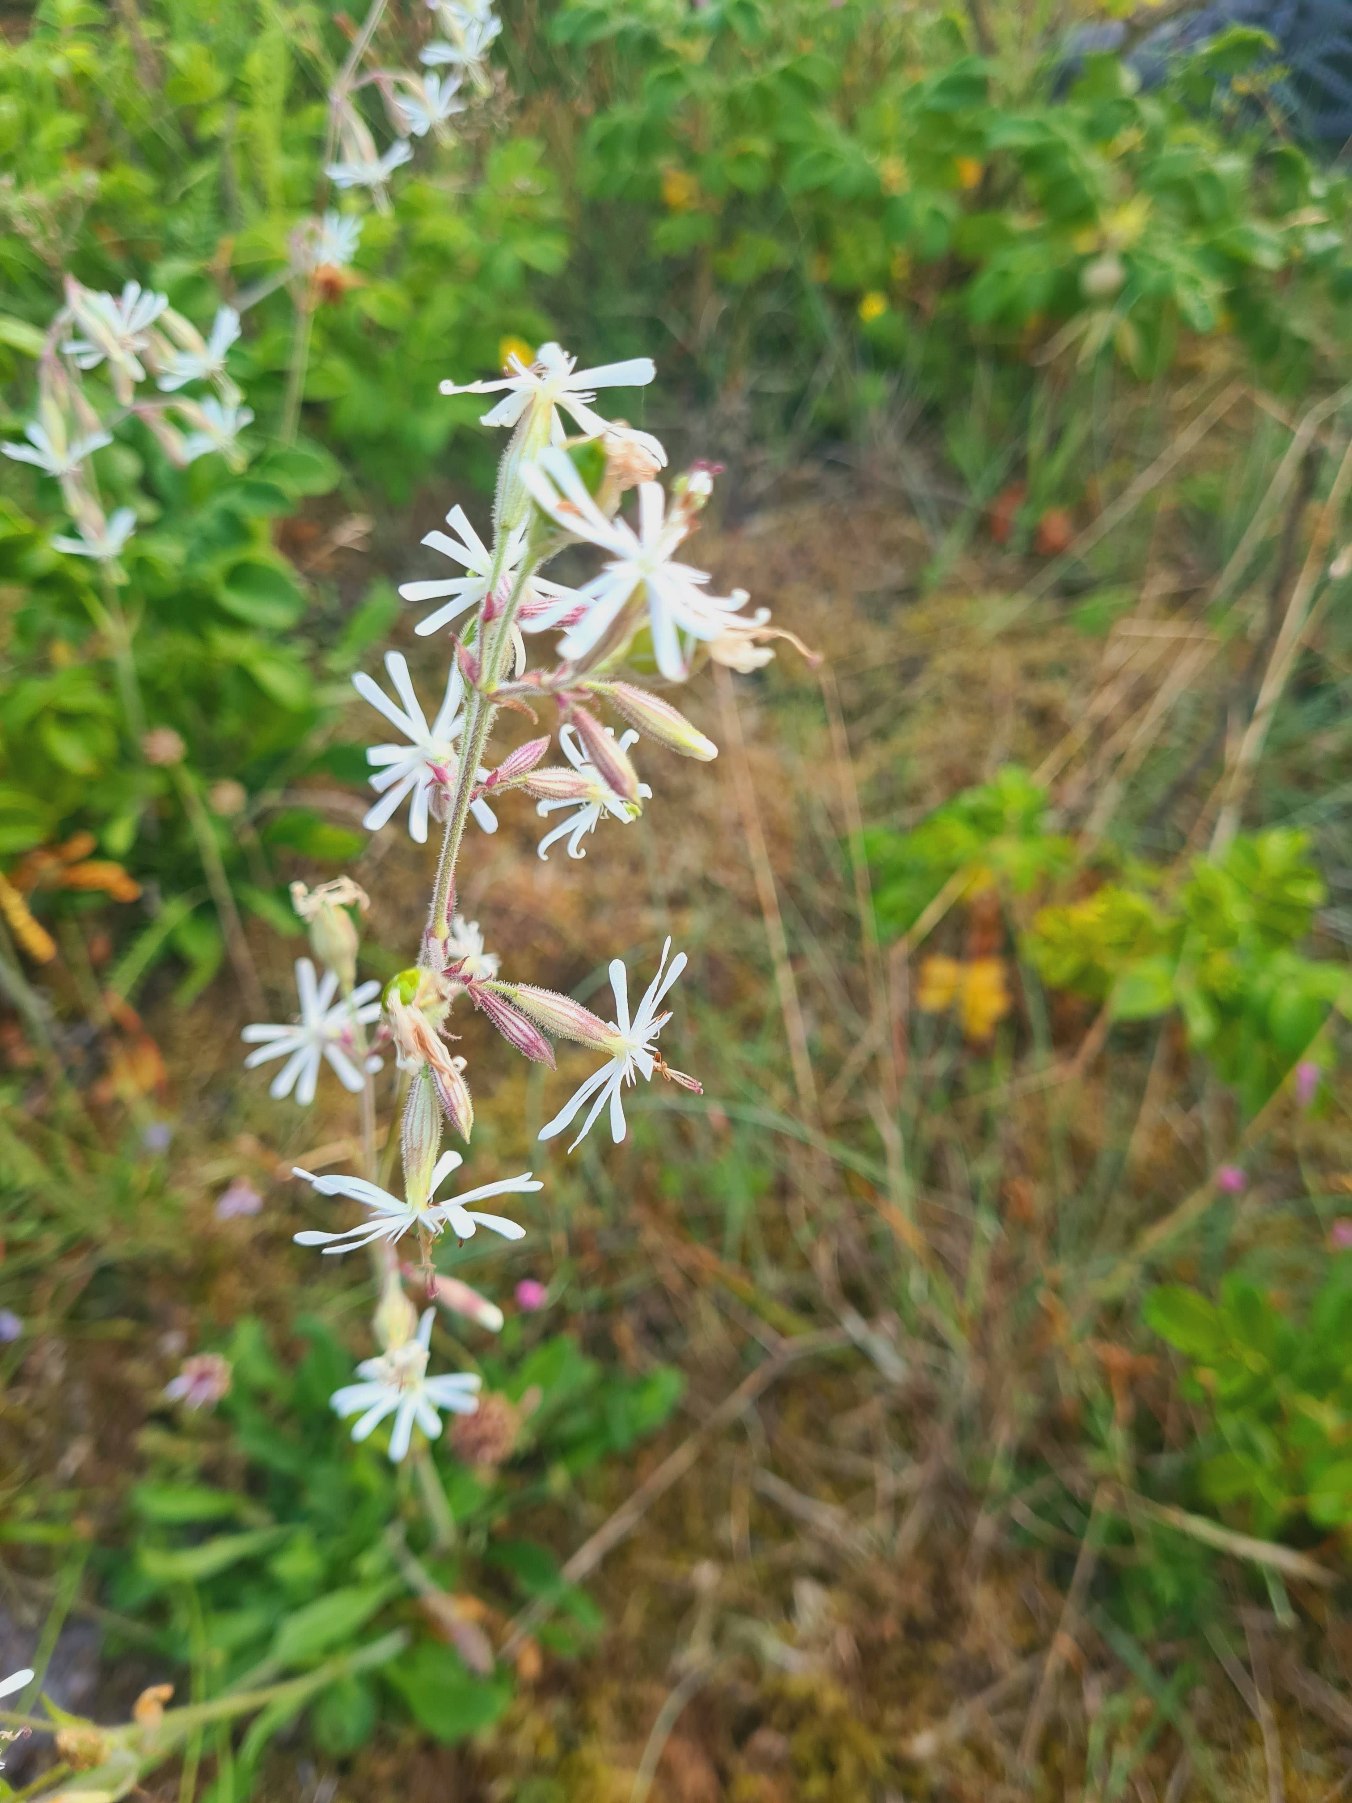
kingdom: Plantae
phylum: Tracheophyta
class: Magnoliopsida
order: Caryophyllales
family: Caryophyllaceae
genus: Silene
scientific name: Silene nutans
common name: Nikkende limurt
